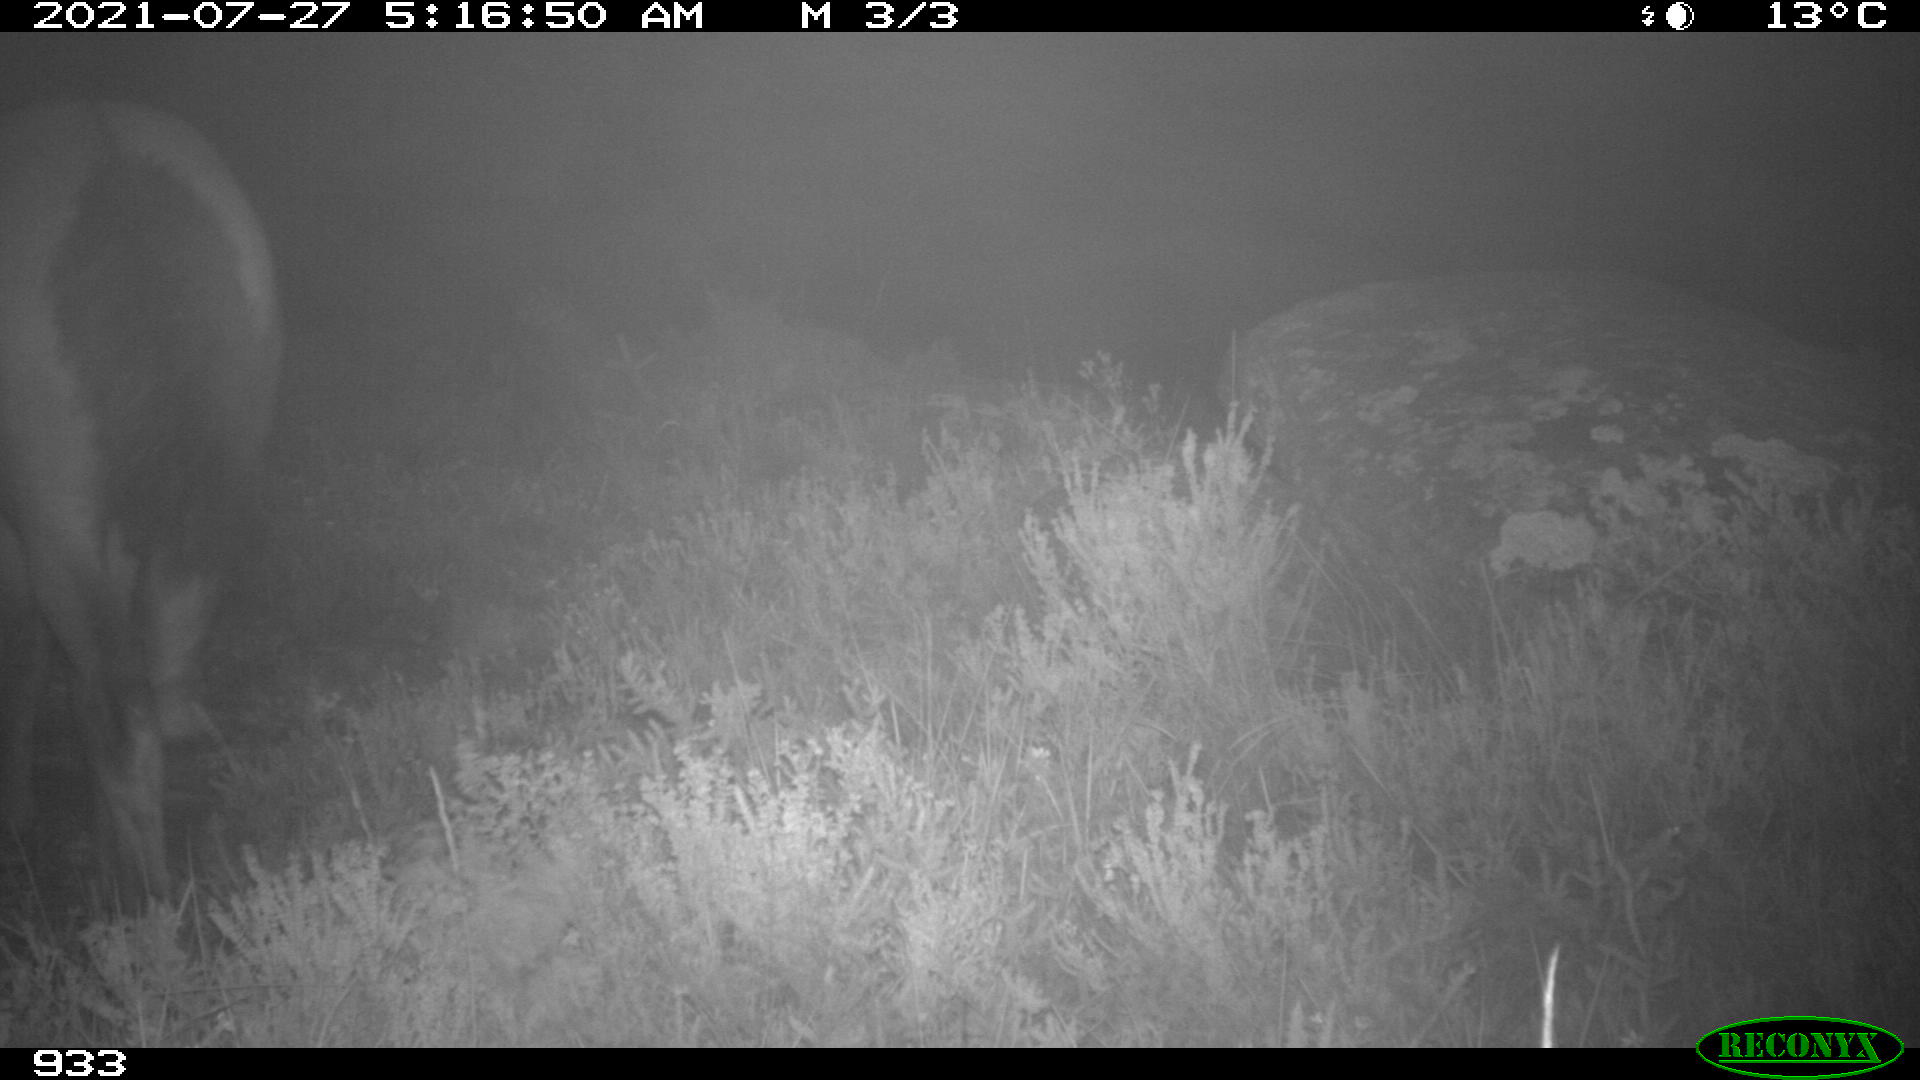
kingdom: Animalia
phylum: Chordata
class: Mammalia
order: Perissodactyla
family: Equidae
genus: Equus
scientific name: Equus caballus
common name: Horse
